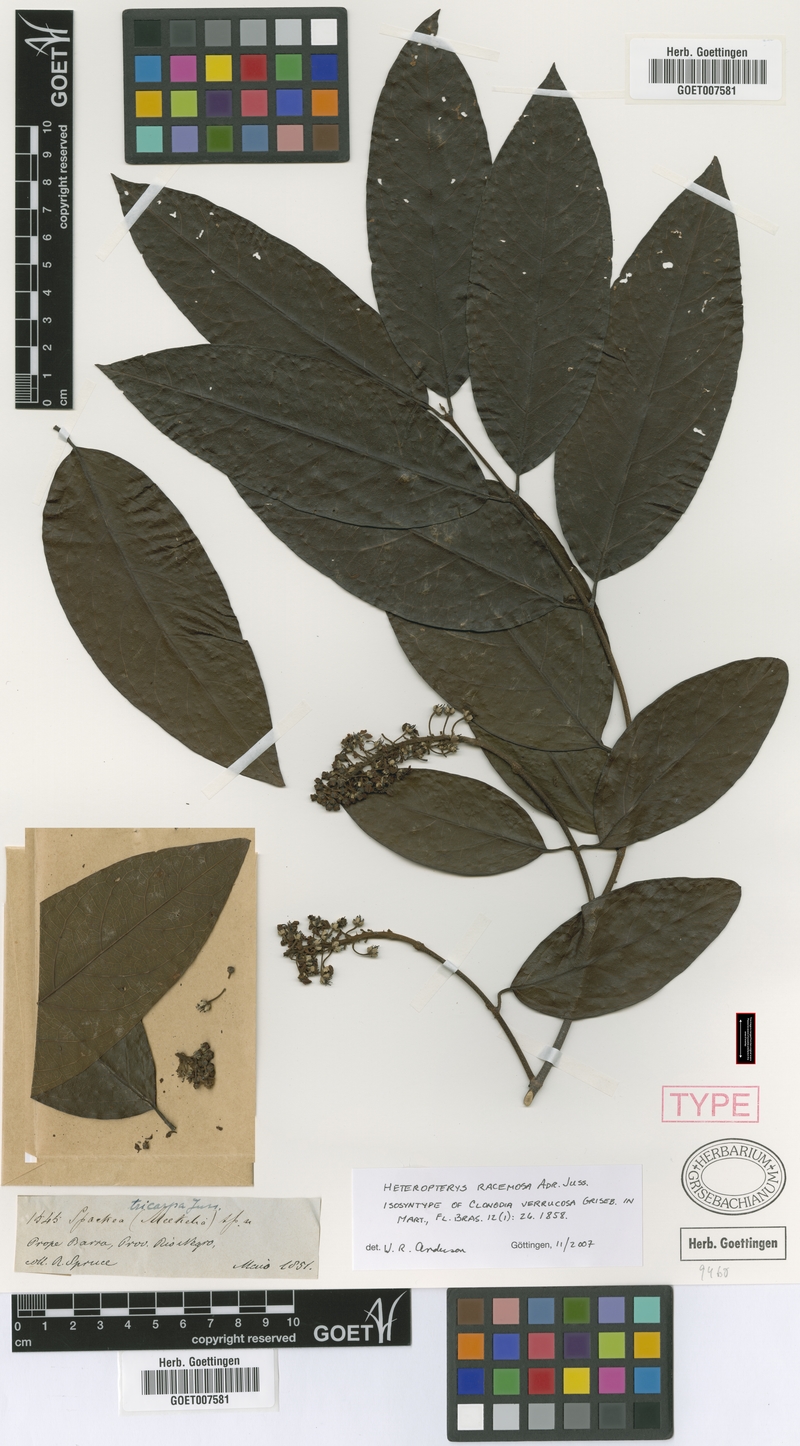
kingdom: Plantae
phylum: Tracheophyta
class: Magnoliopsida
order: Malpighiales
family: Malpighiaceae
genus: Heteropterys
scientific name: Heteropterys racemosa
